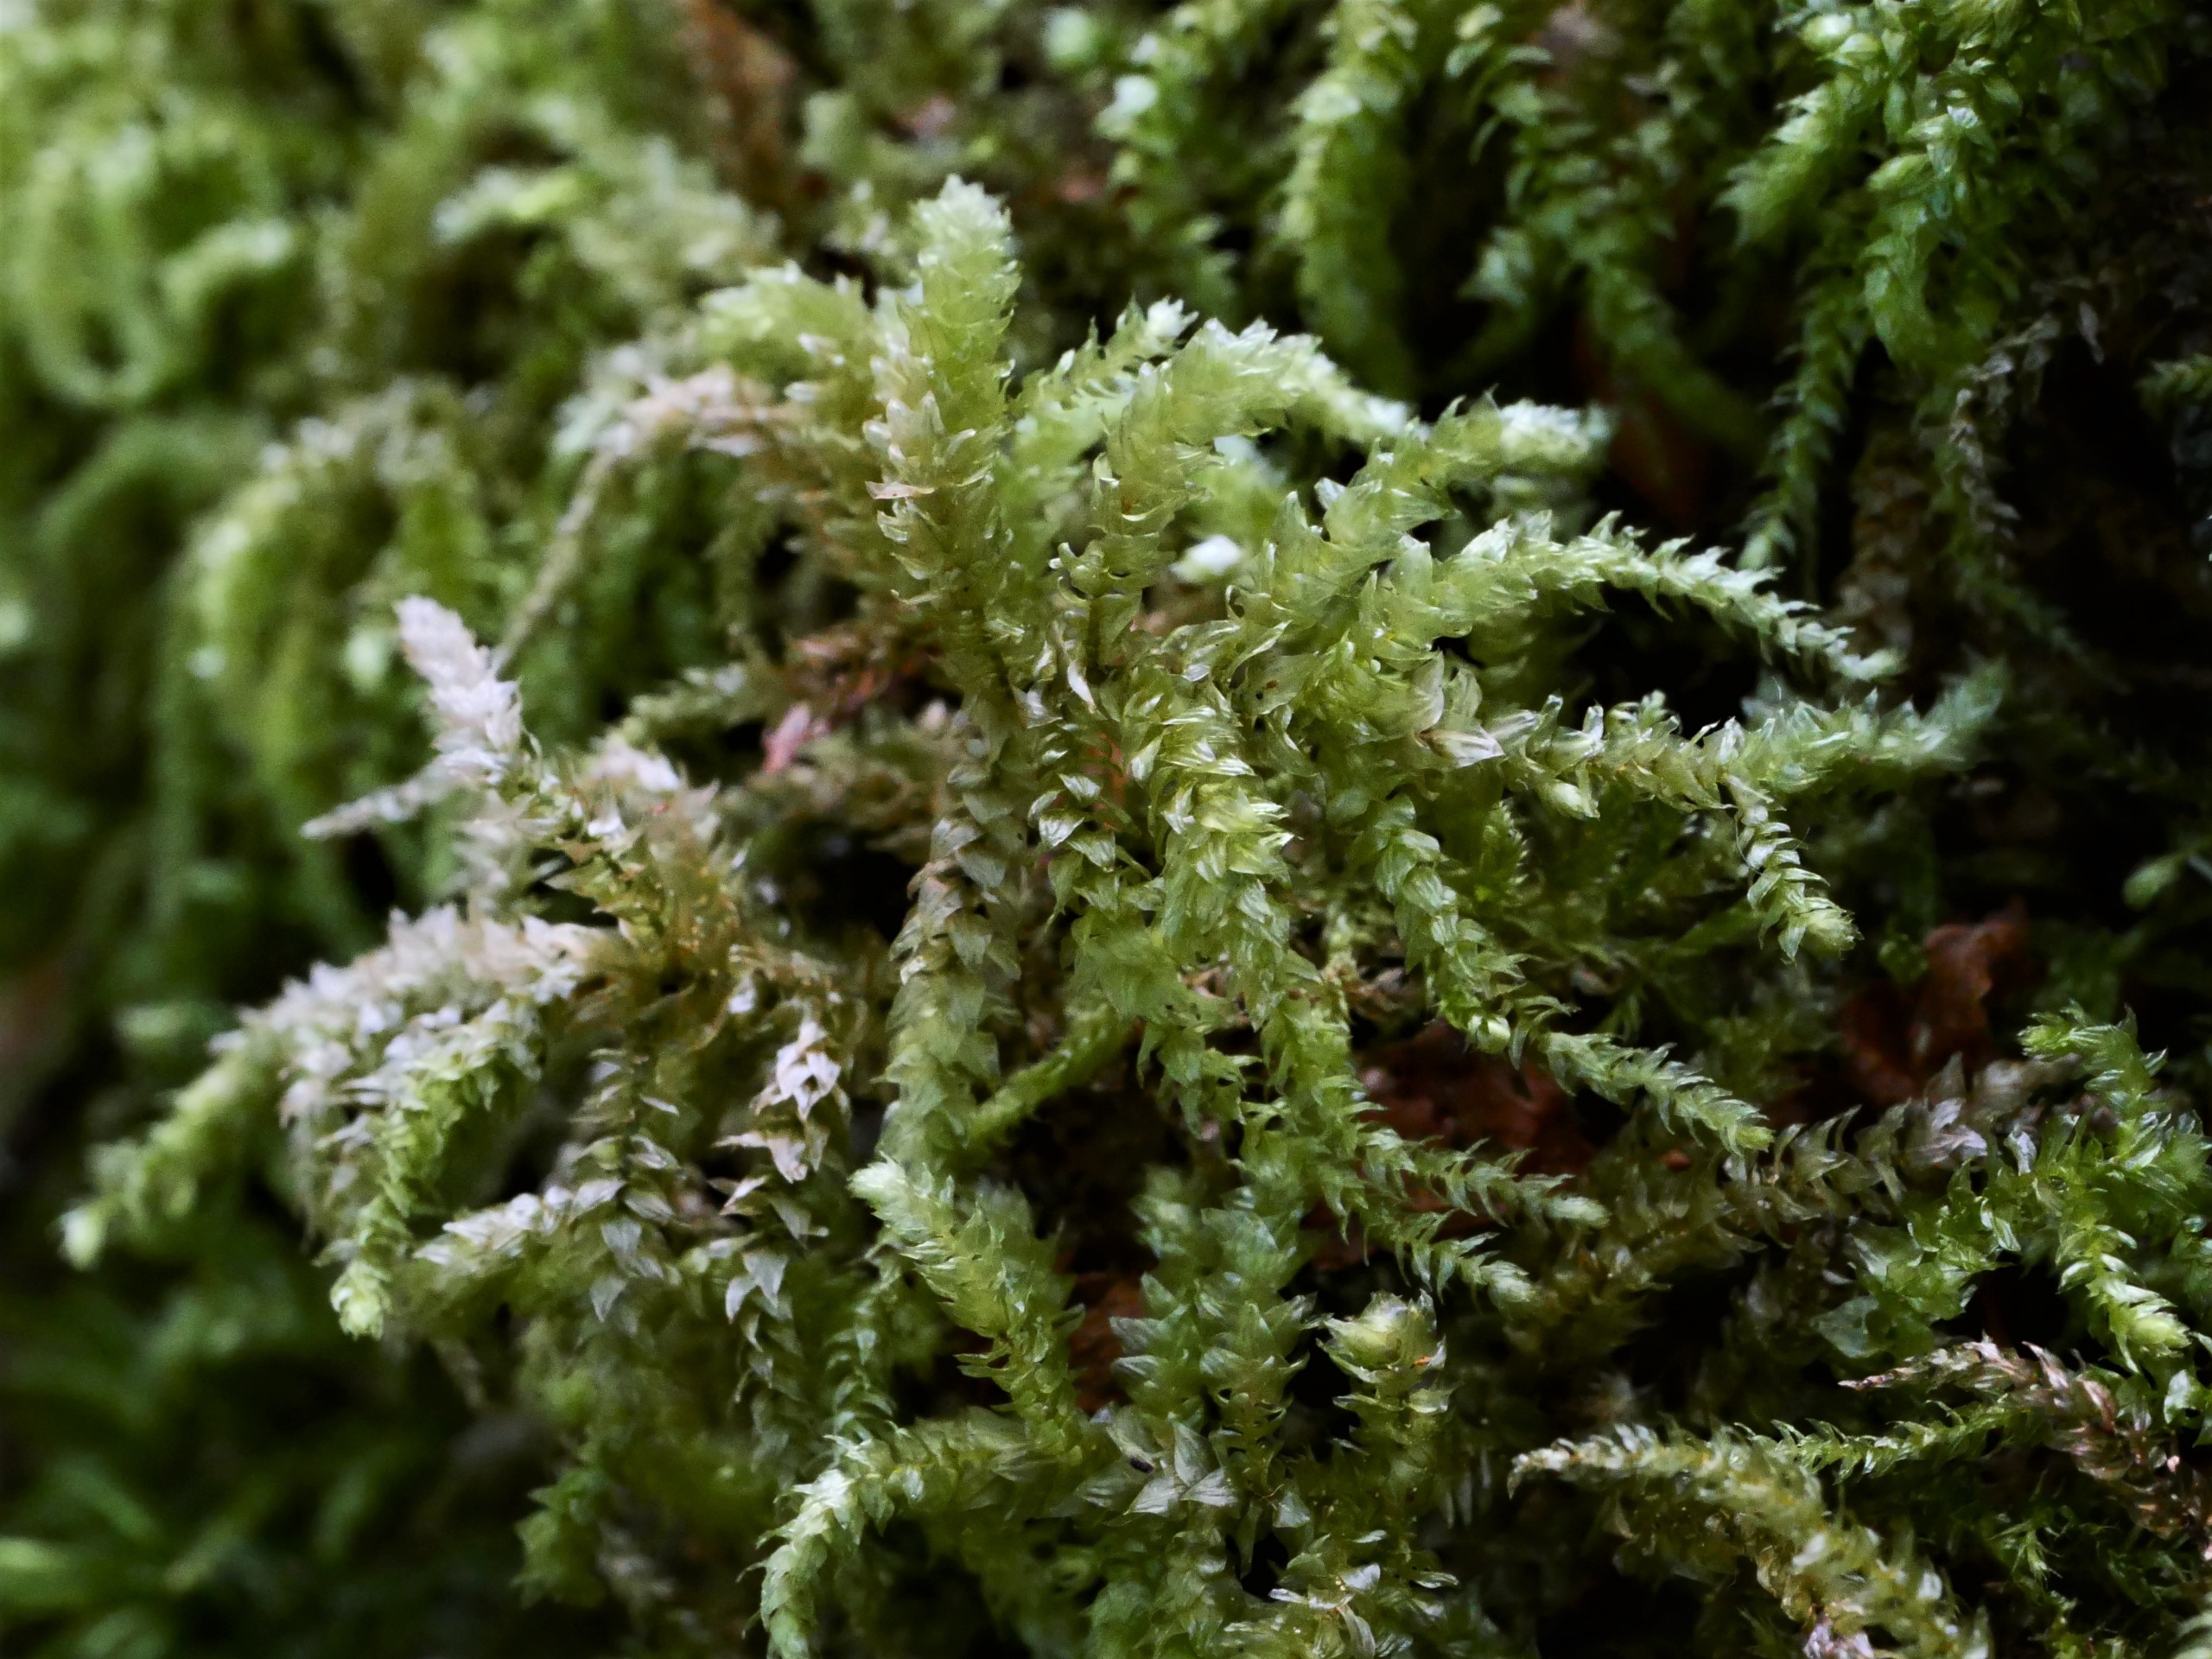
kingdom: Plantae
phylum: Bryophyta
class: Bryopsida
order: Hypnales
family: Brachytheciaceae
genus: Eurhynchium
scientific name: Eurhynchium angustirete
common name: Stor næbmos
